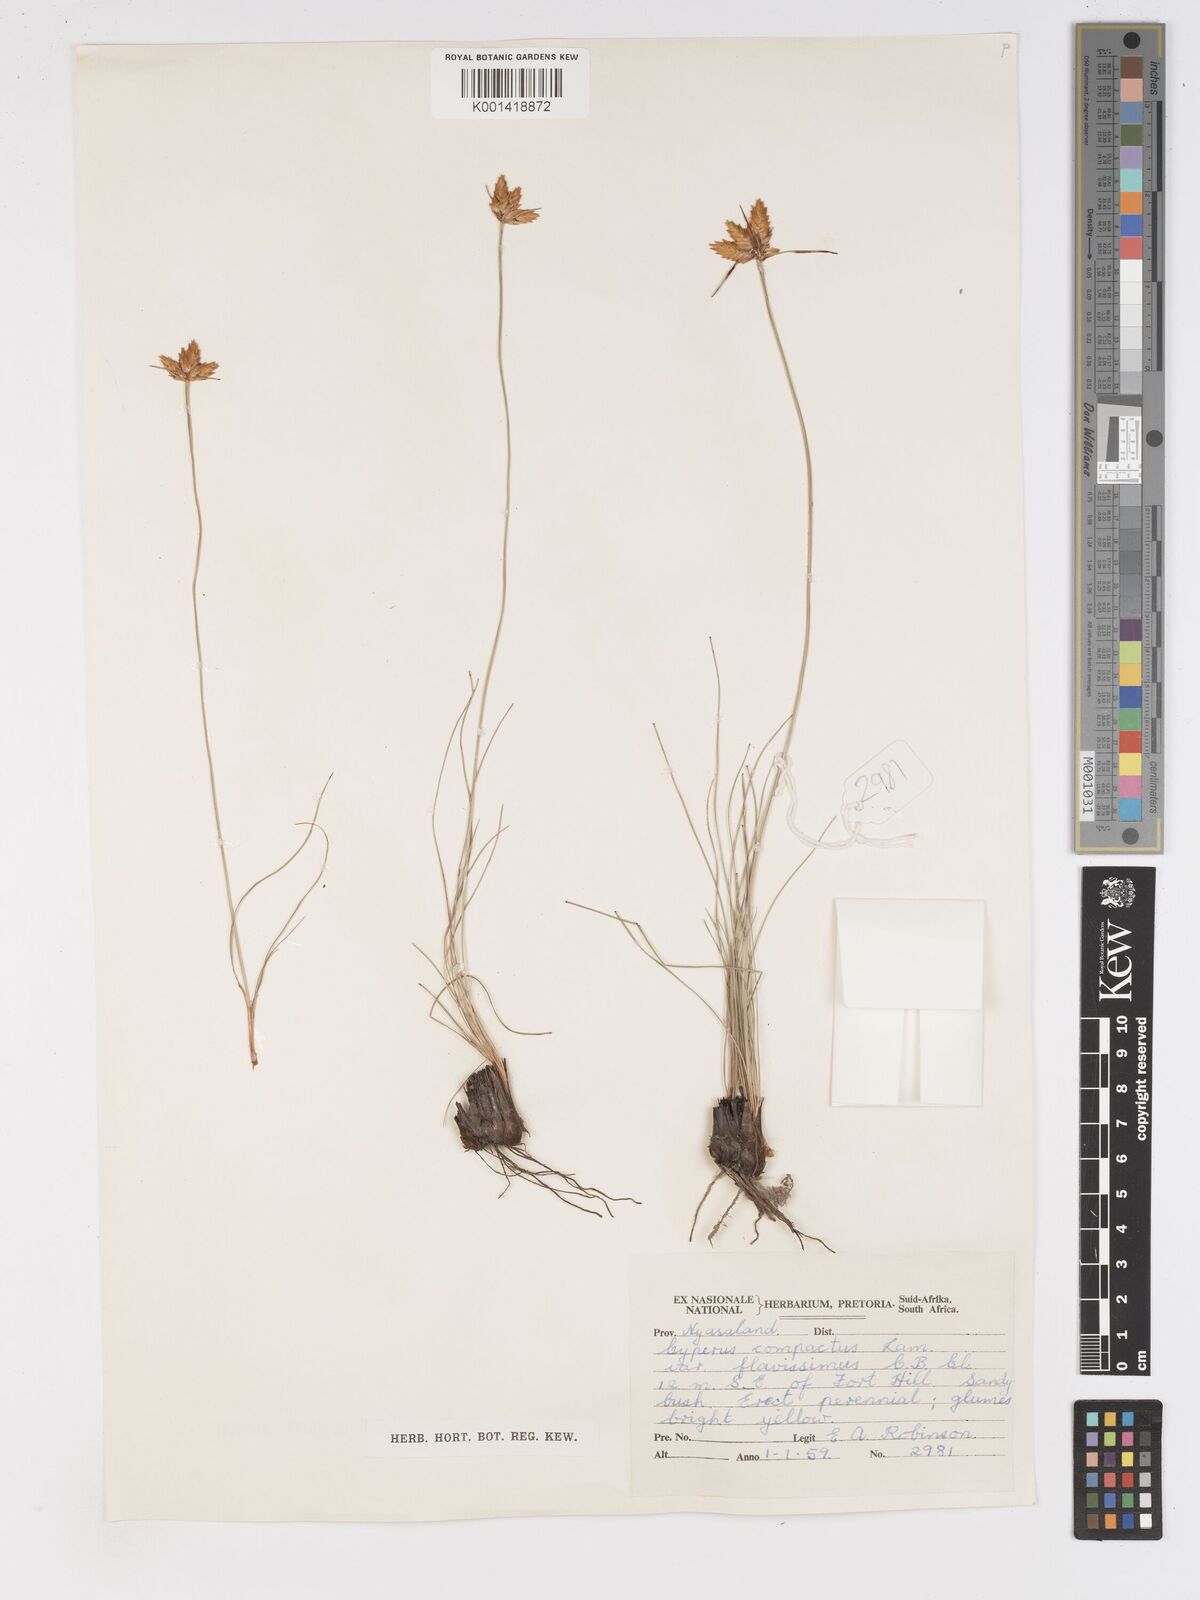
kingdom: Plantae
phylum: Tracheophyta
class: Liliopsida
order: Poales
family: Cyperaceae
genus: Cyperus
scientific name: Cyperus sphaerocephalus
